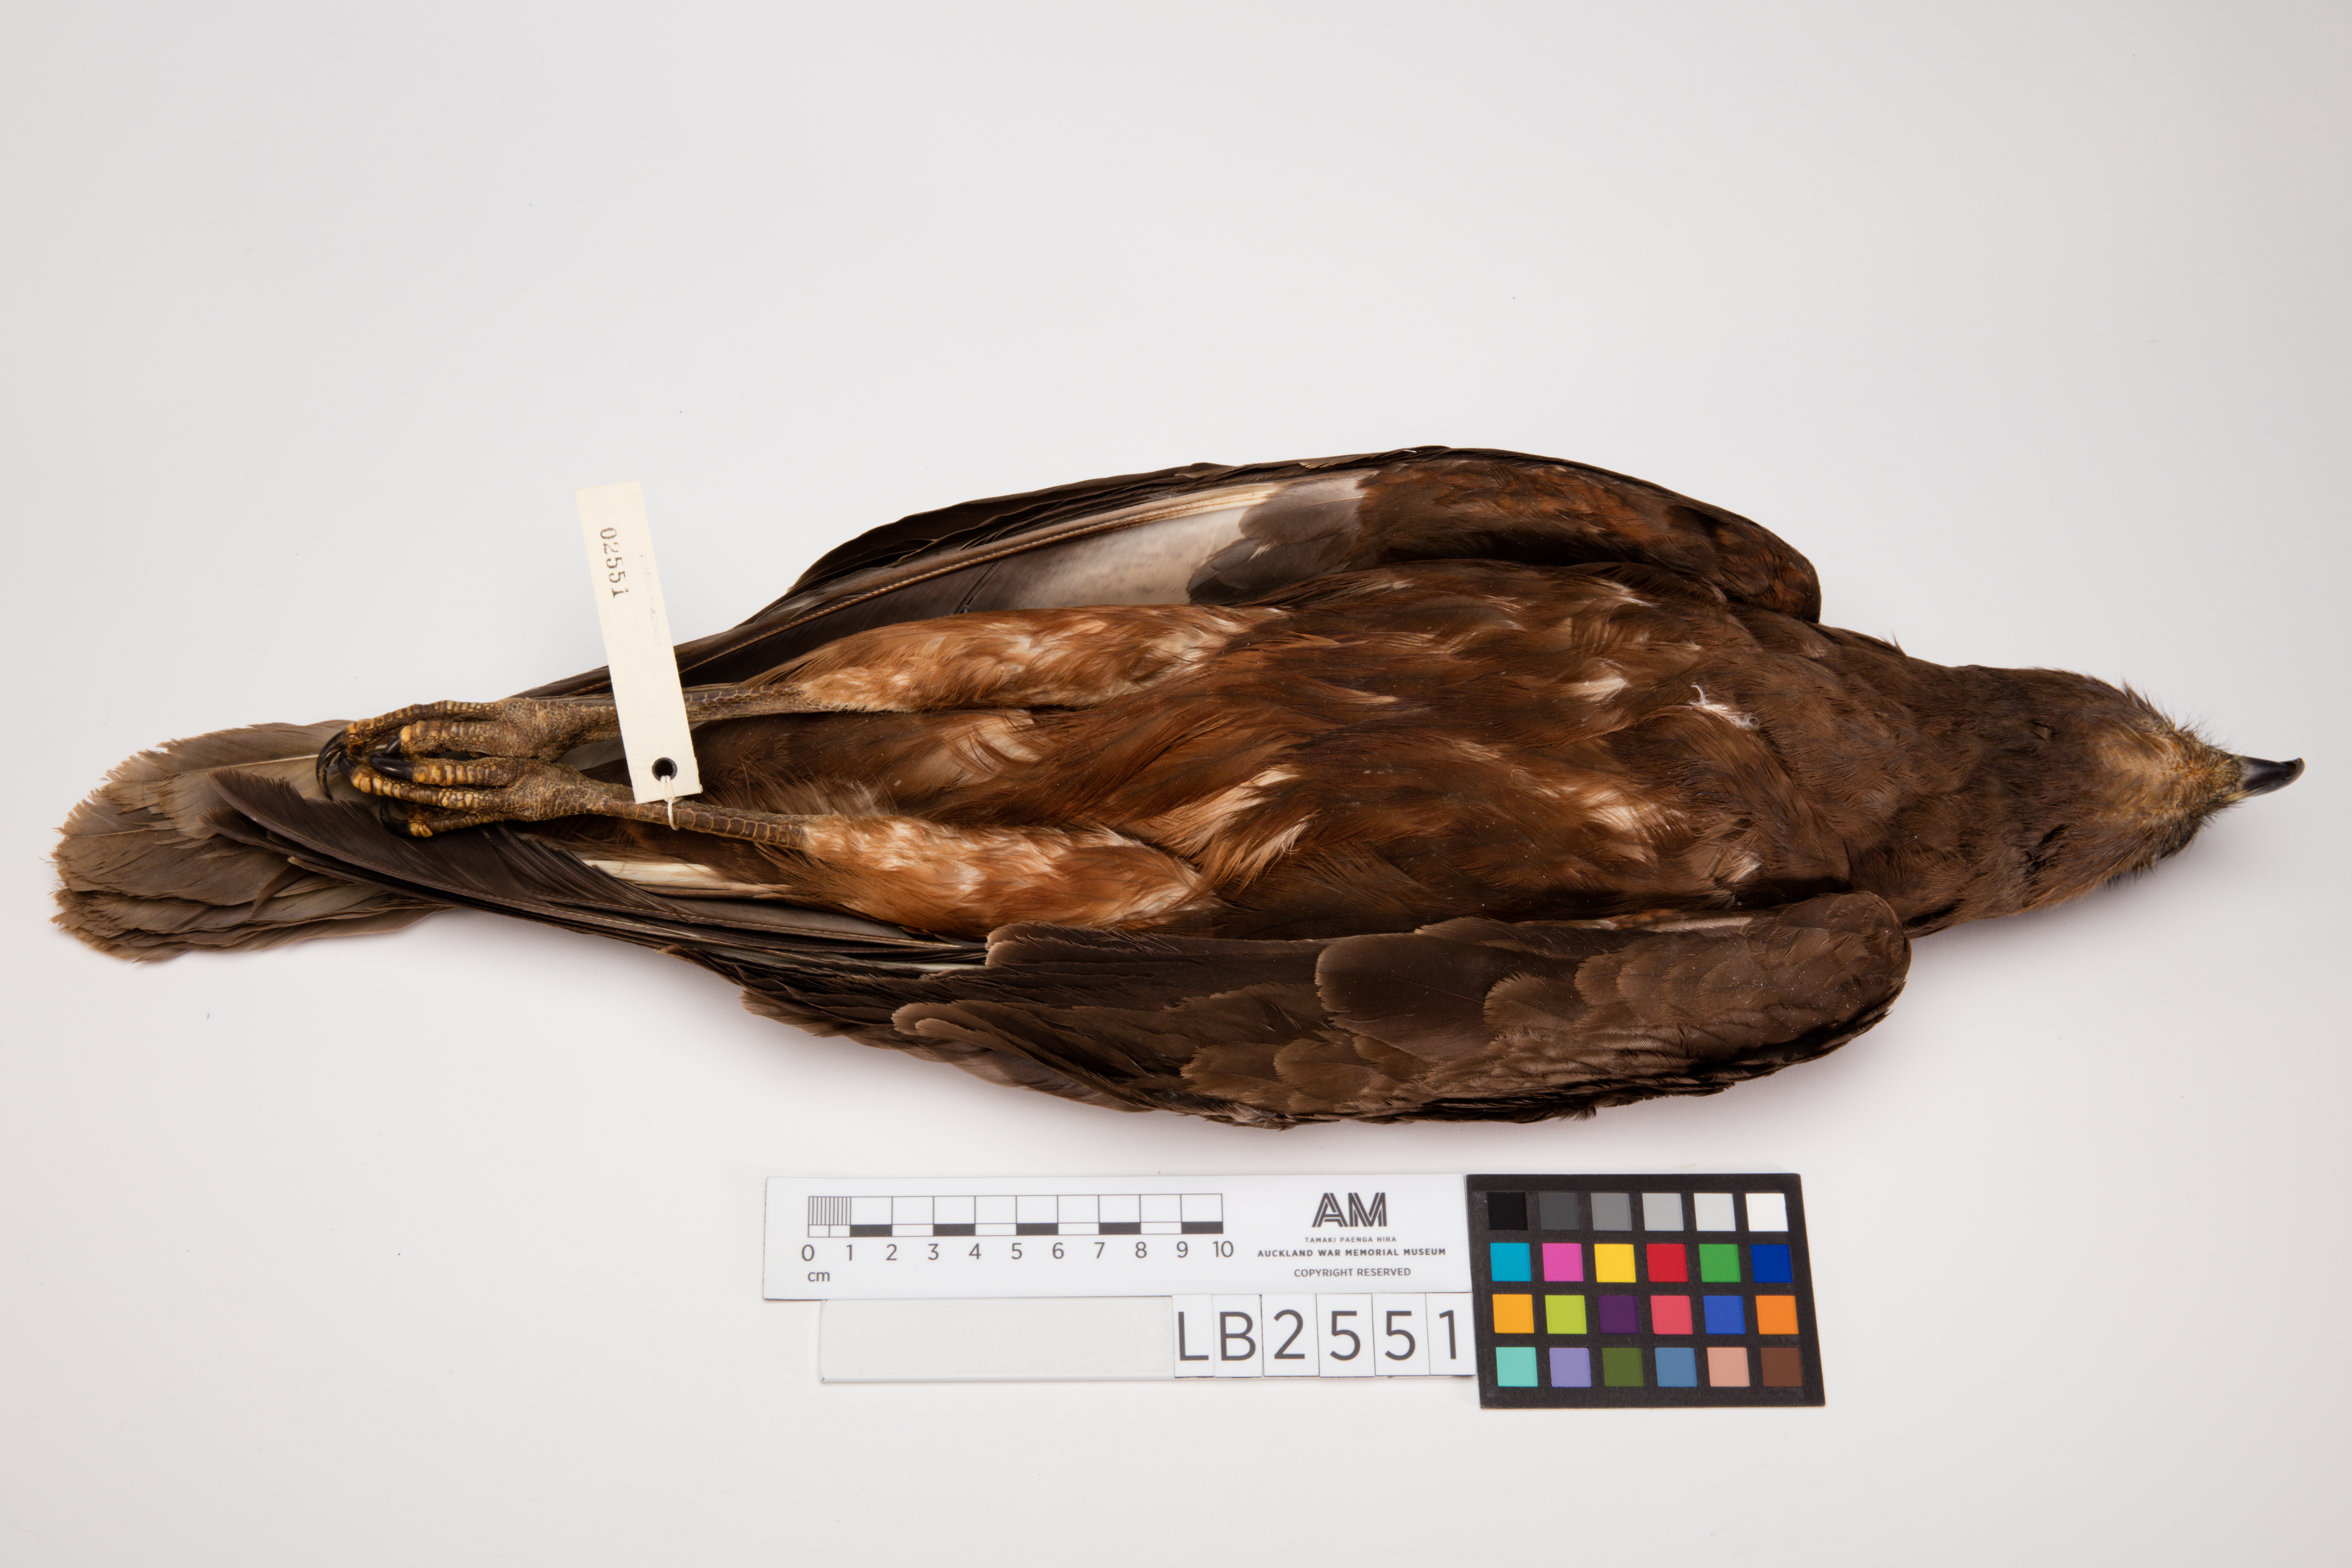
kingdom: Animalia
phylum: Chordata
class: Aves
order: Accipitriformes
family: Accipitridae
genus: Circus
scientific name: Circus approximans
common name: Swamp harrier
